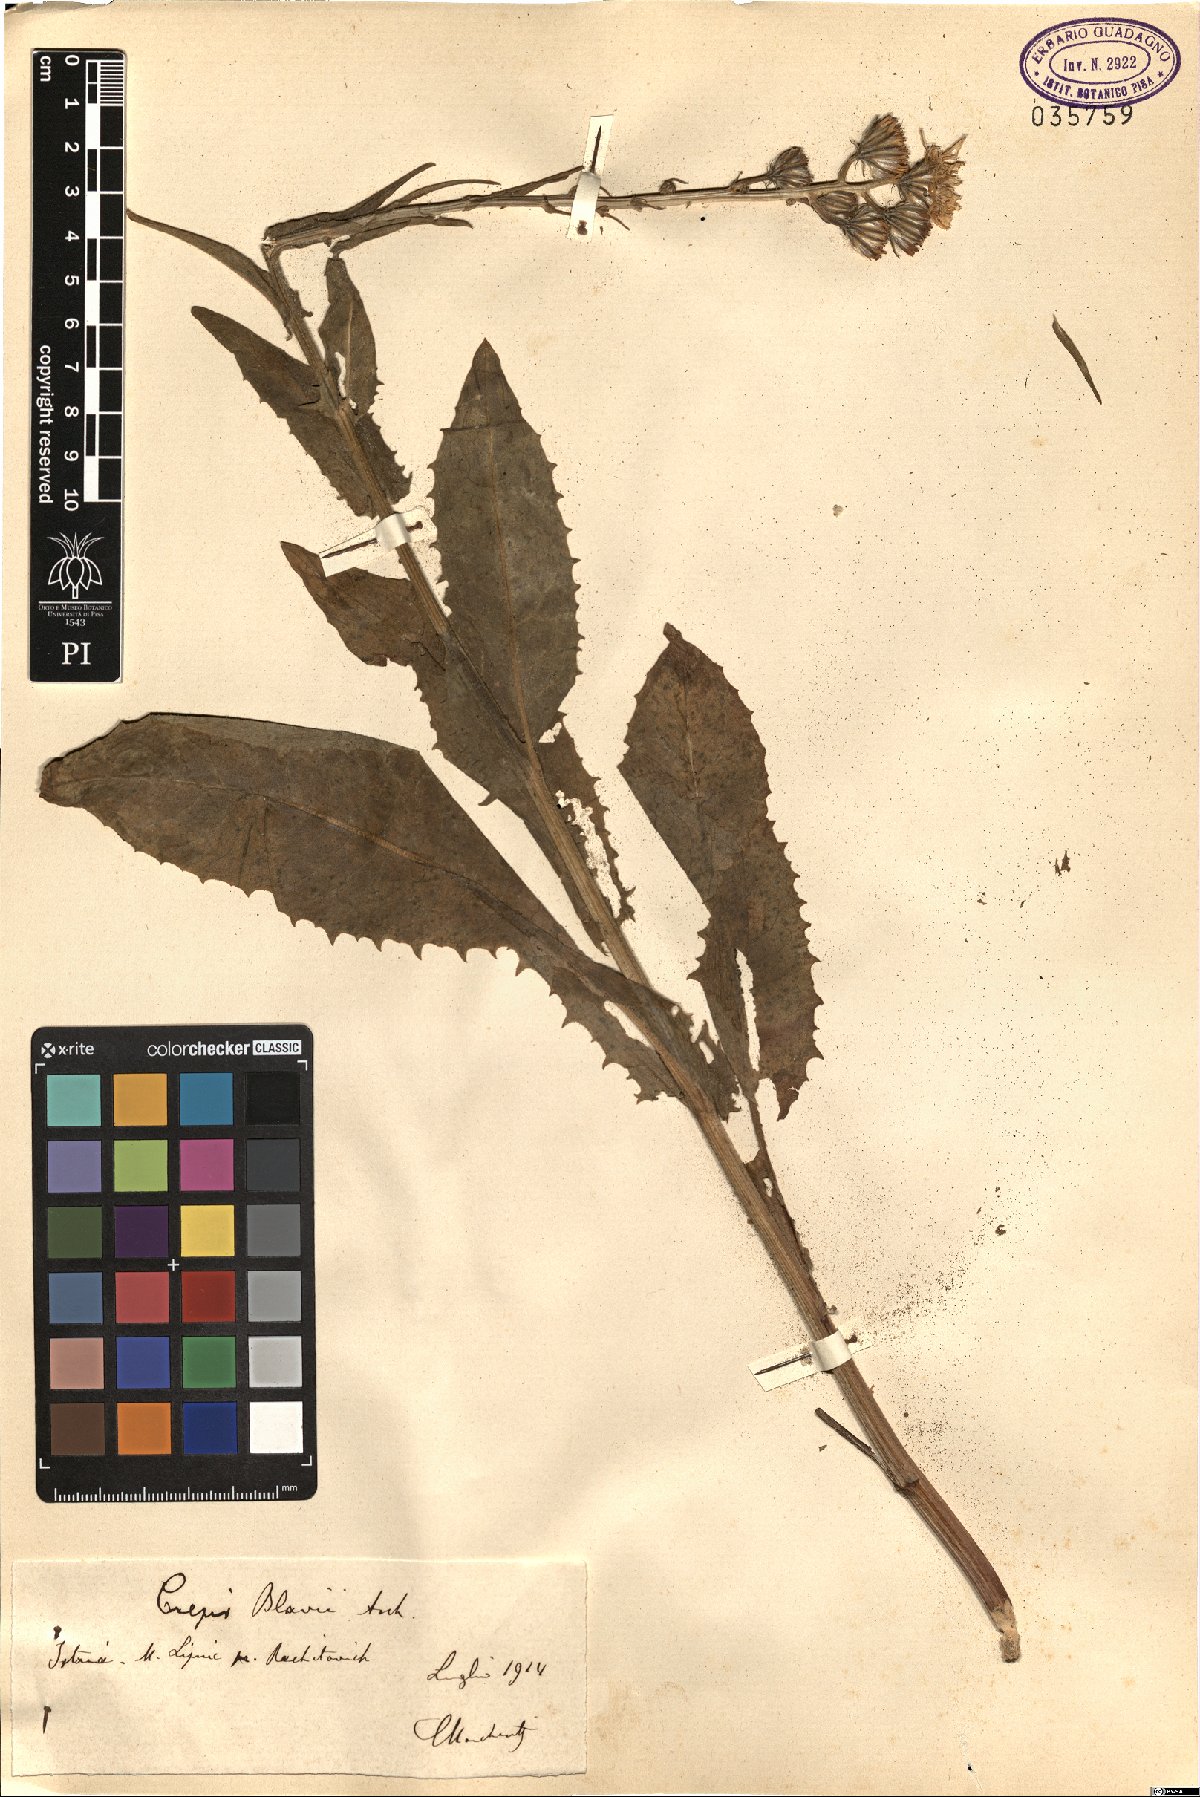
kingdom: Plantae
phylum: Tracheophyta
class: Magnoliopsida
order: Asterales
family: Asteraceae
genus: Crepis
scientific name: Crepis pannonica
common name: Pasture hawksbeard
